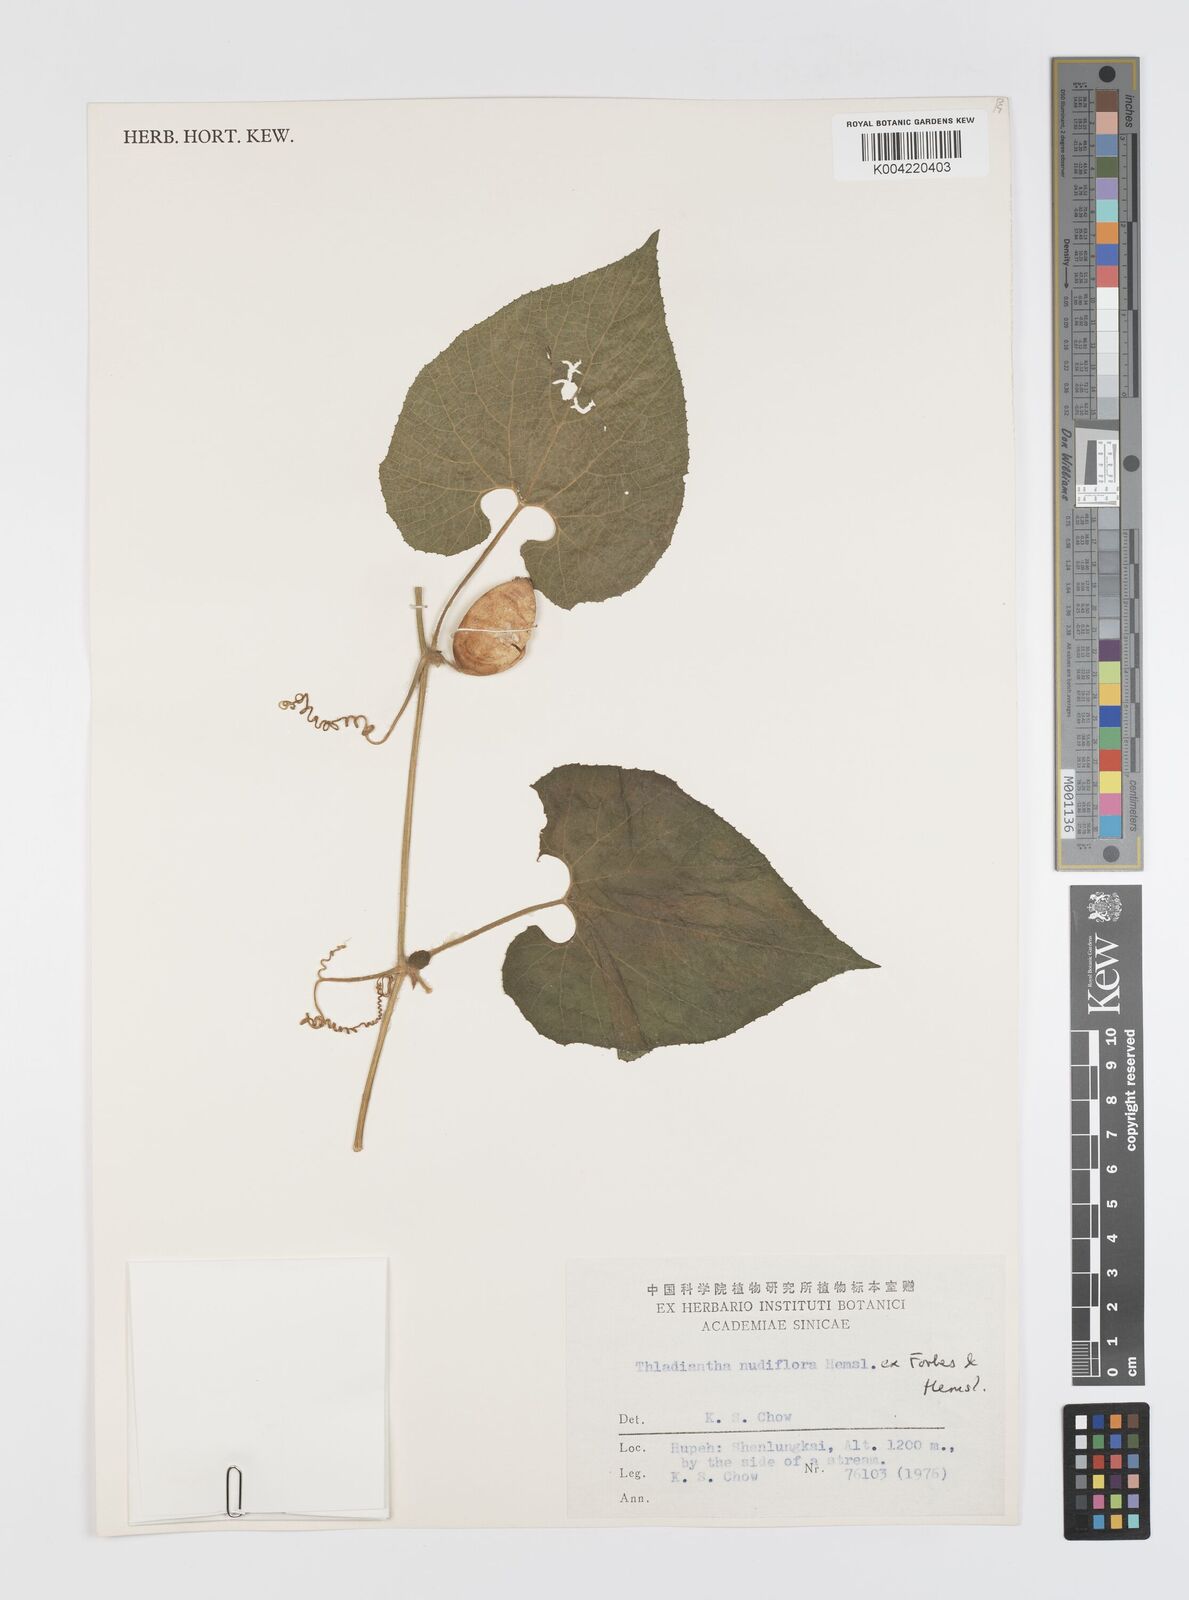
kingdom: Plantae
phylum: Tracheophyta
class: Magnoliopsida
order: Cucurbitales
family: Cucurbitaceae
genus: Thladiantha
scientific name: Thladiantha nudiflora
